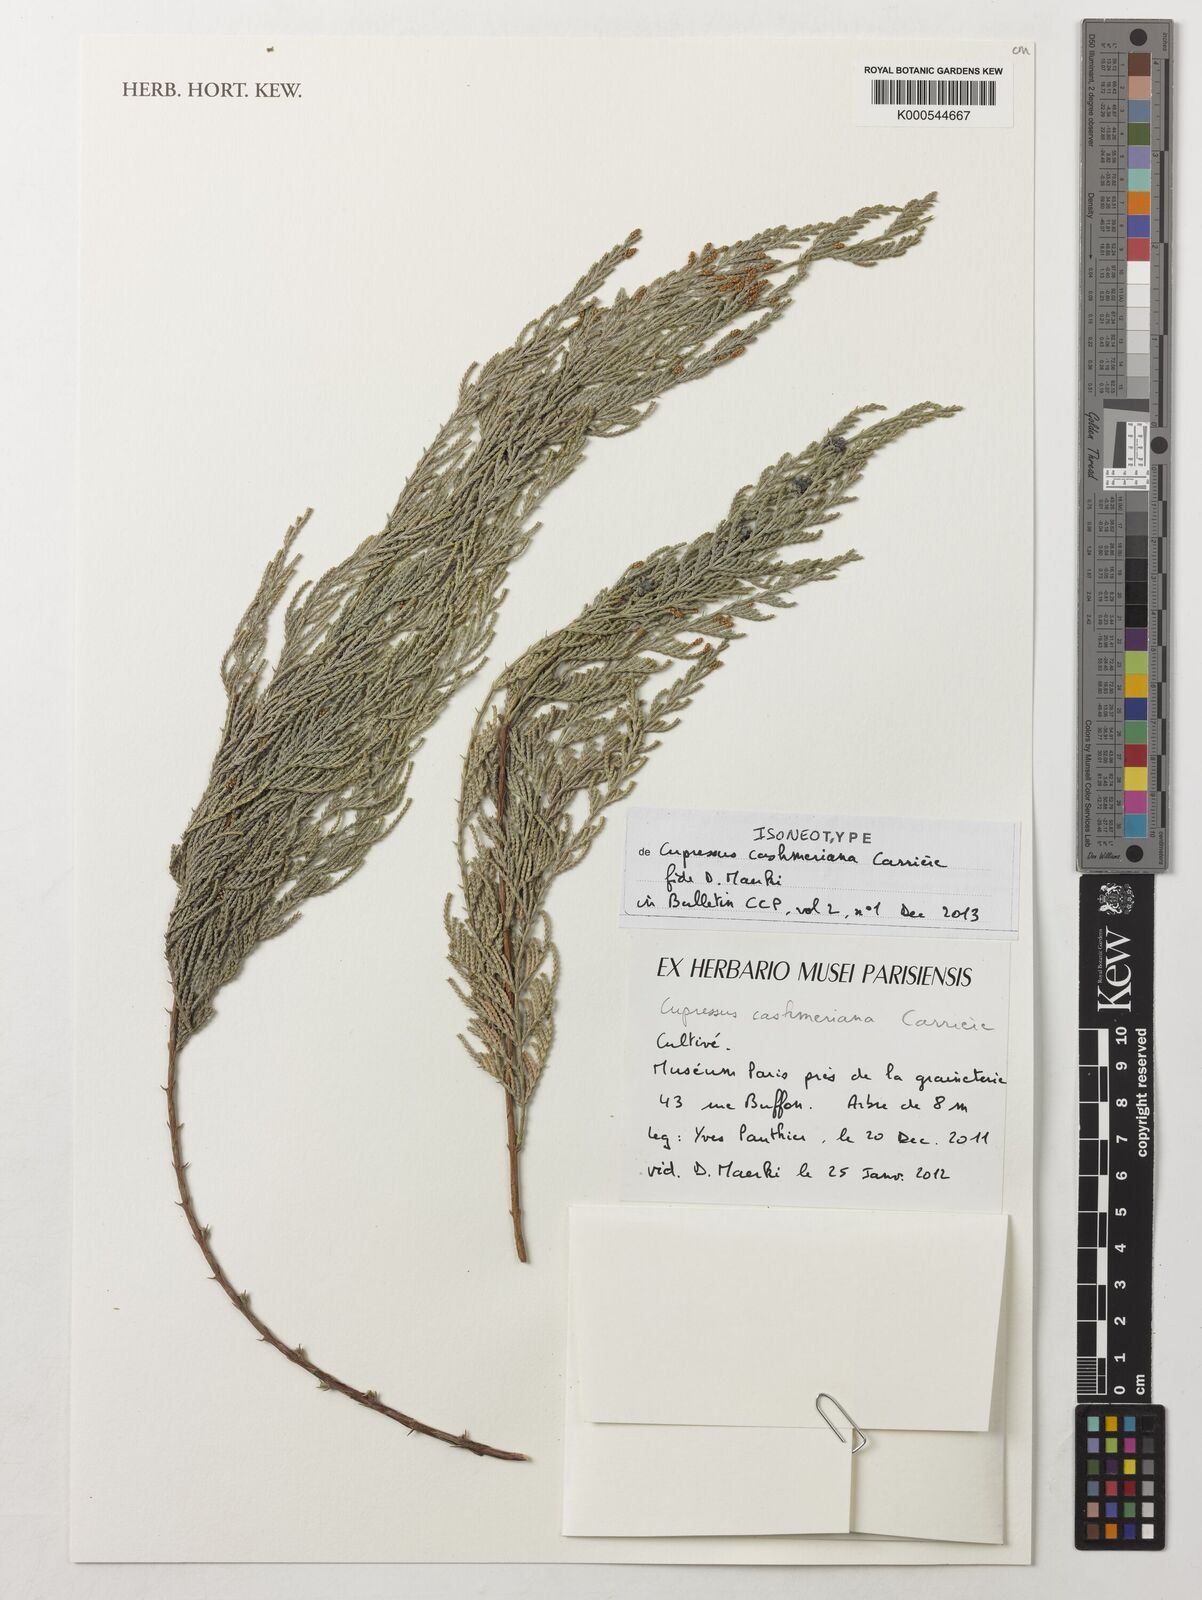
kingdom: Plantae
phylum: Tracheophyta
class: Pinopsida
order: Pinales
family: Cupressaceae
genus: Cupressus
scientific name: Cupressus cashmeriana
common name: Bhutan cypress
